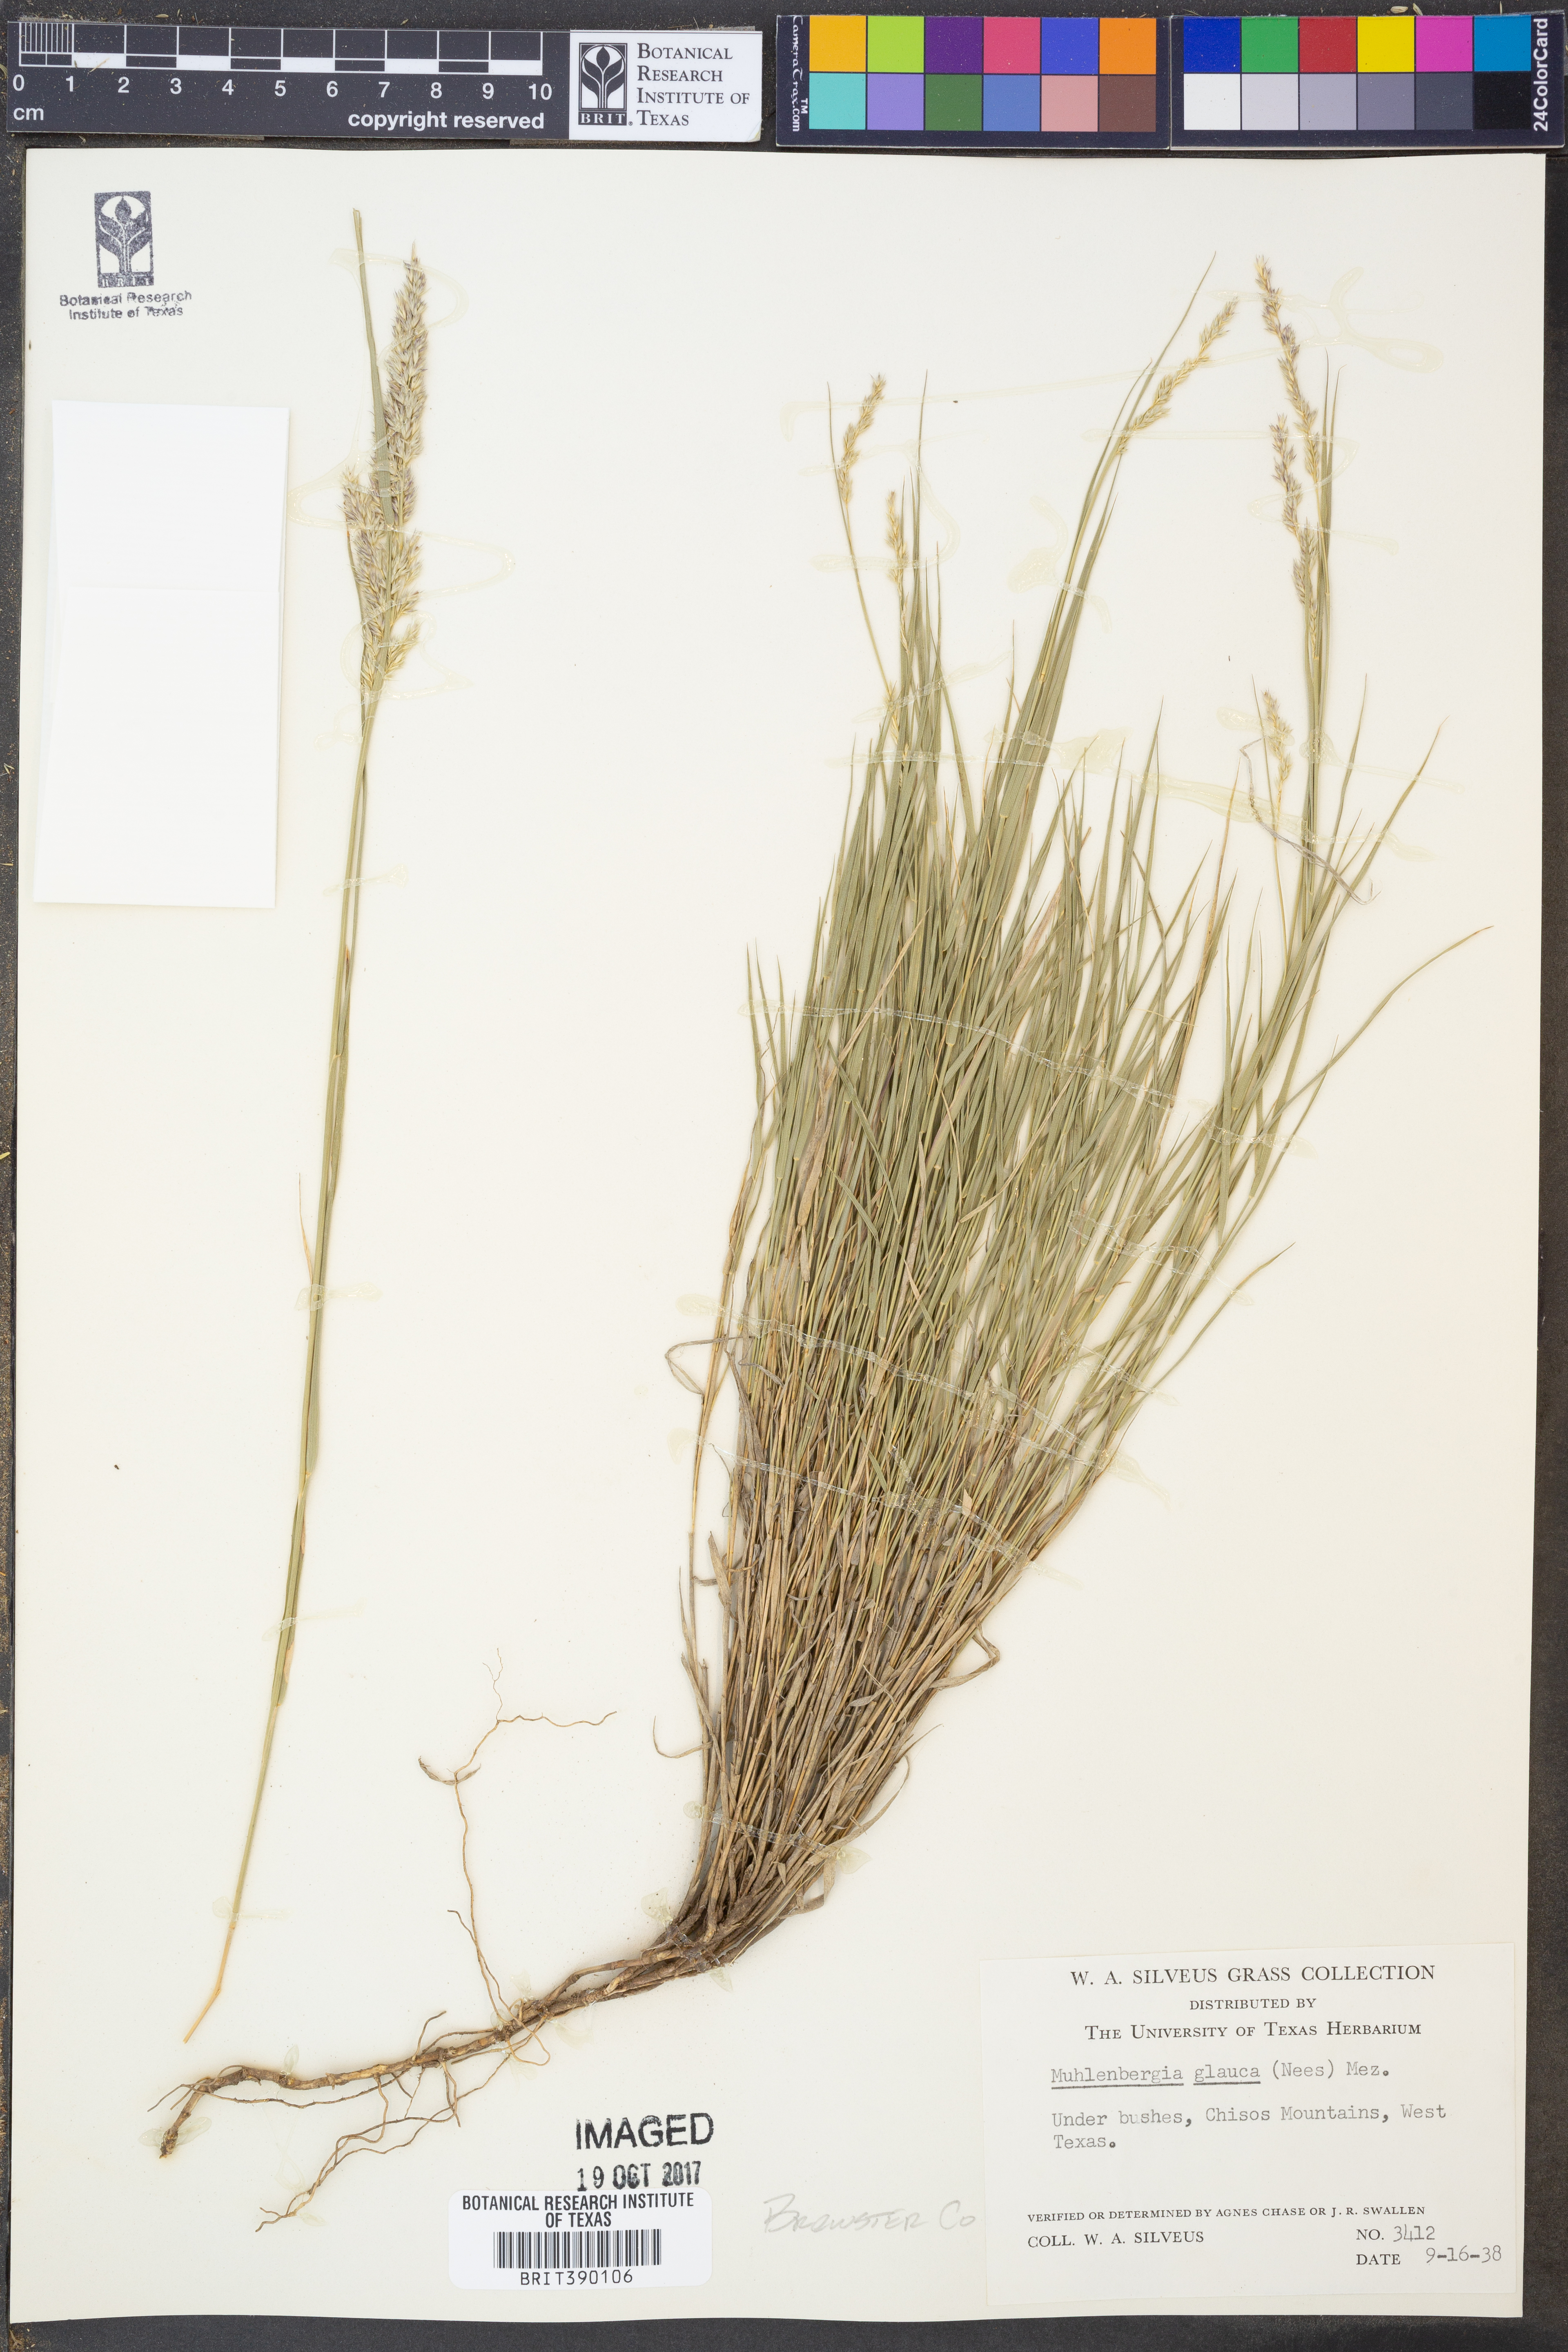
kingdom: Plantae
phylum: Tracheophyta
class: Liliopsida
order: Poales
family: Poaceae
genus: Muhlenbergia
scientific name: Muhlenbergia glauca
